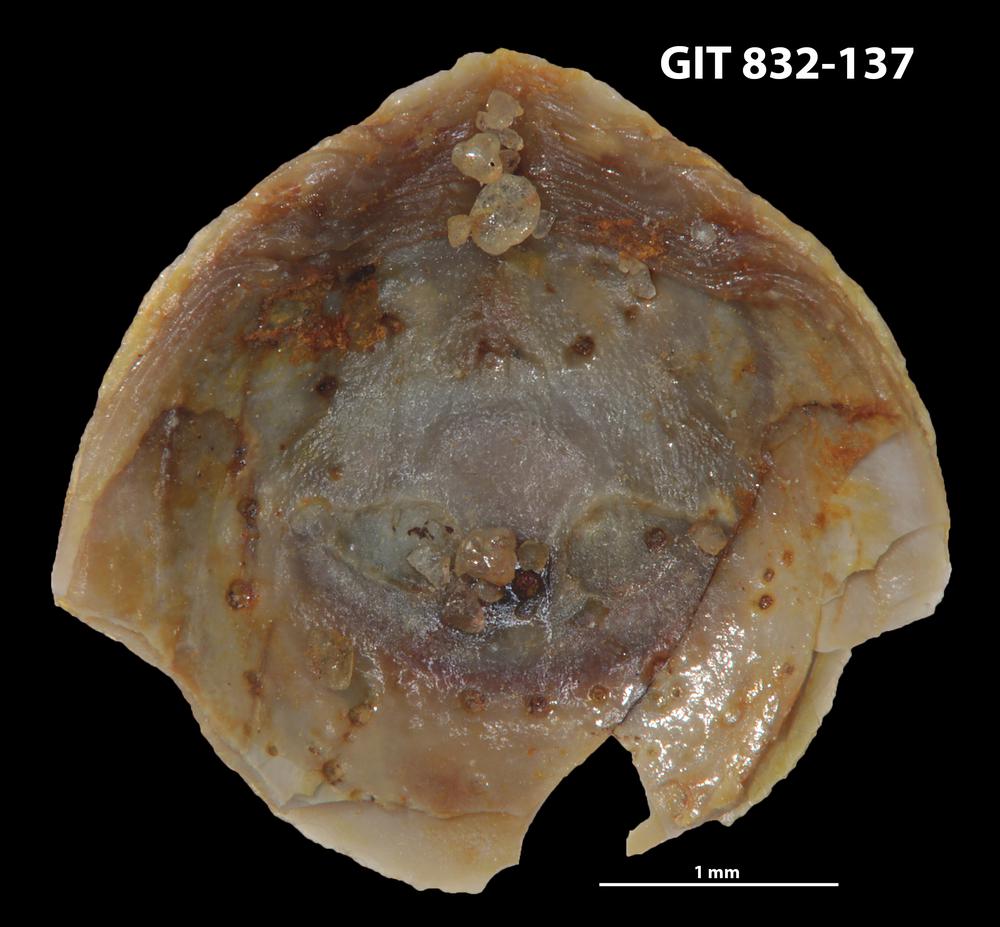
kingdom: Animalia
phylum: Brachiopoda
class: Lingulata
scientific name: Lingulata
